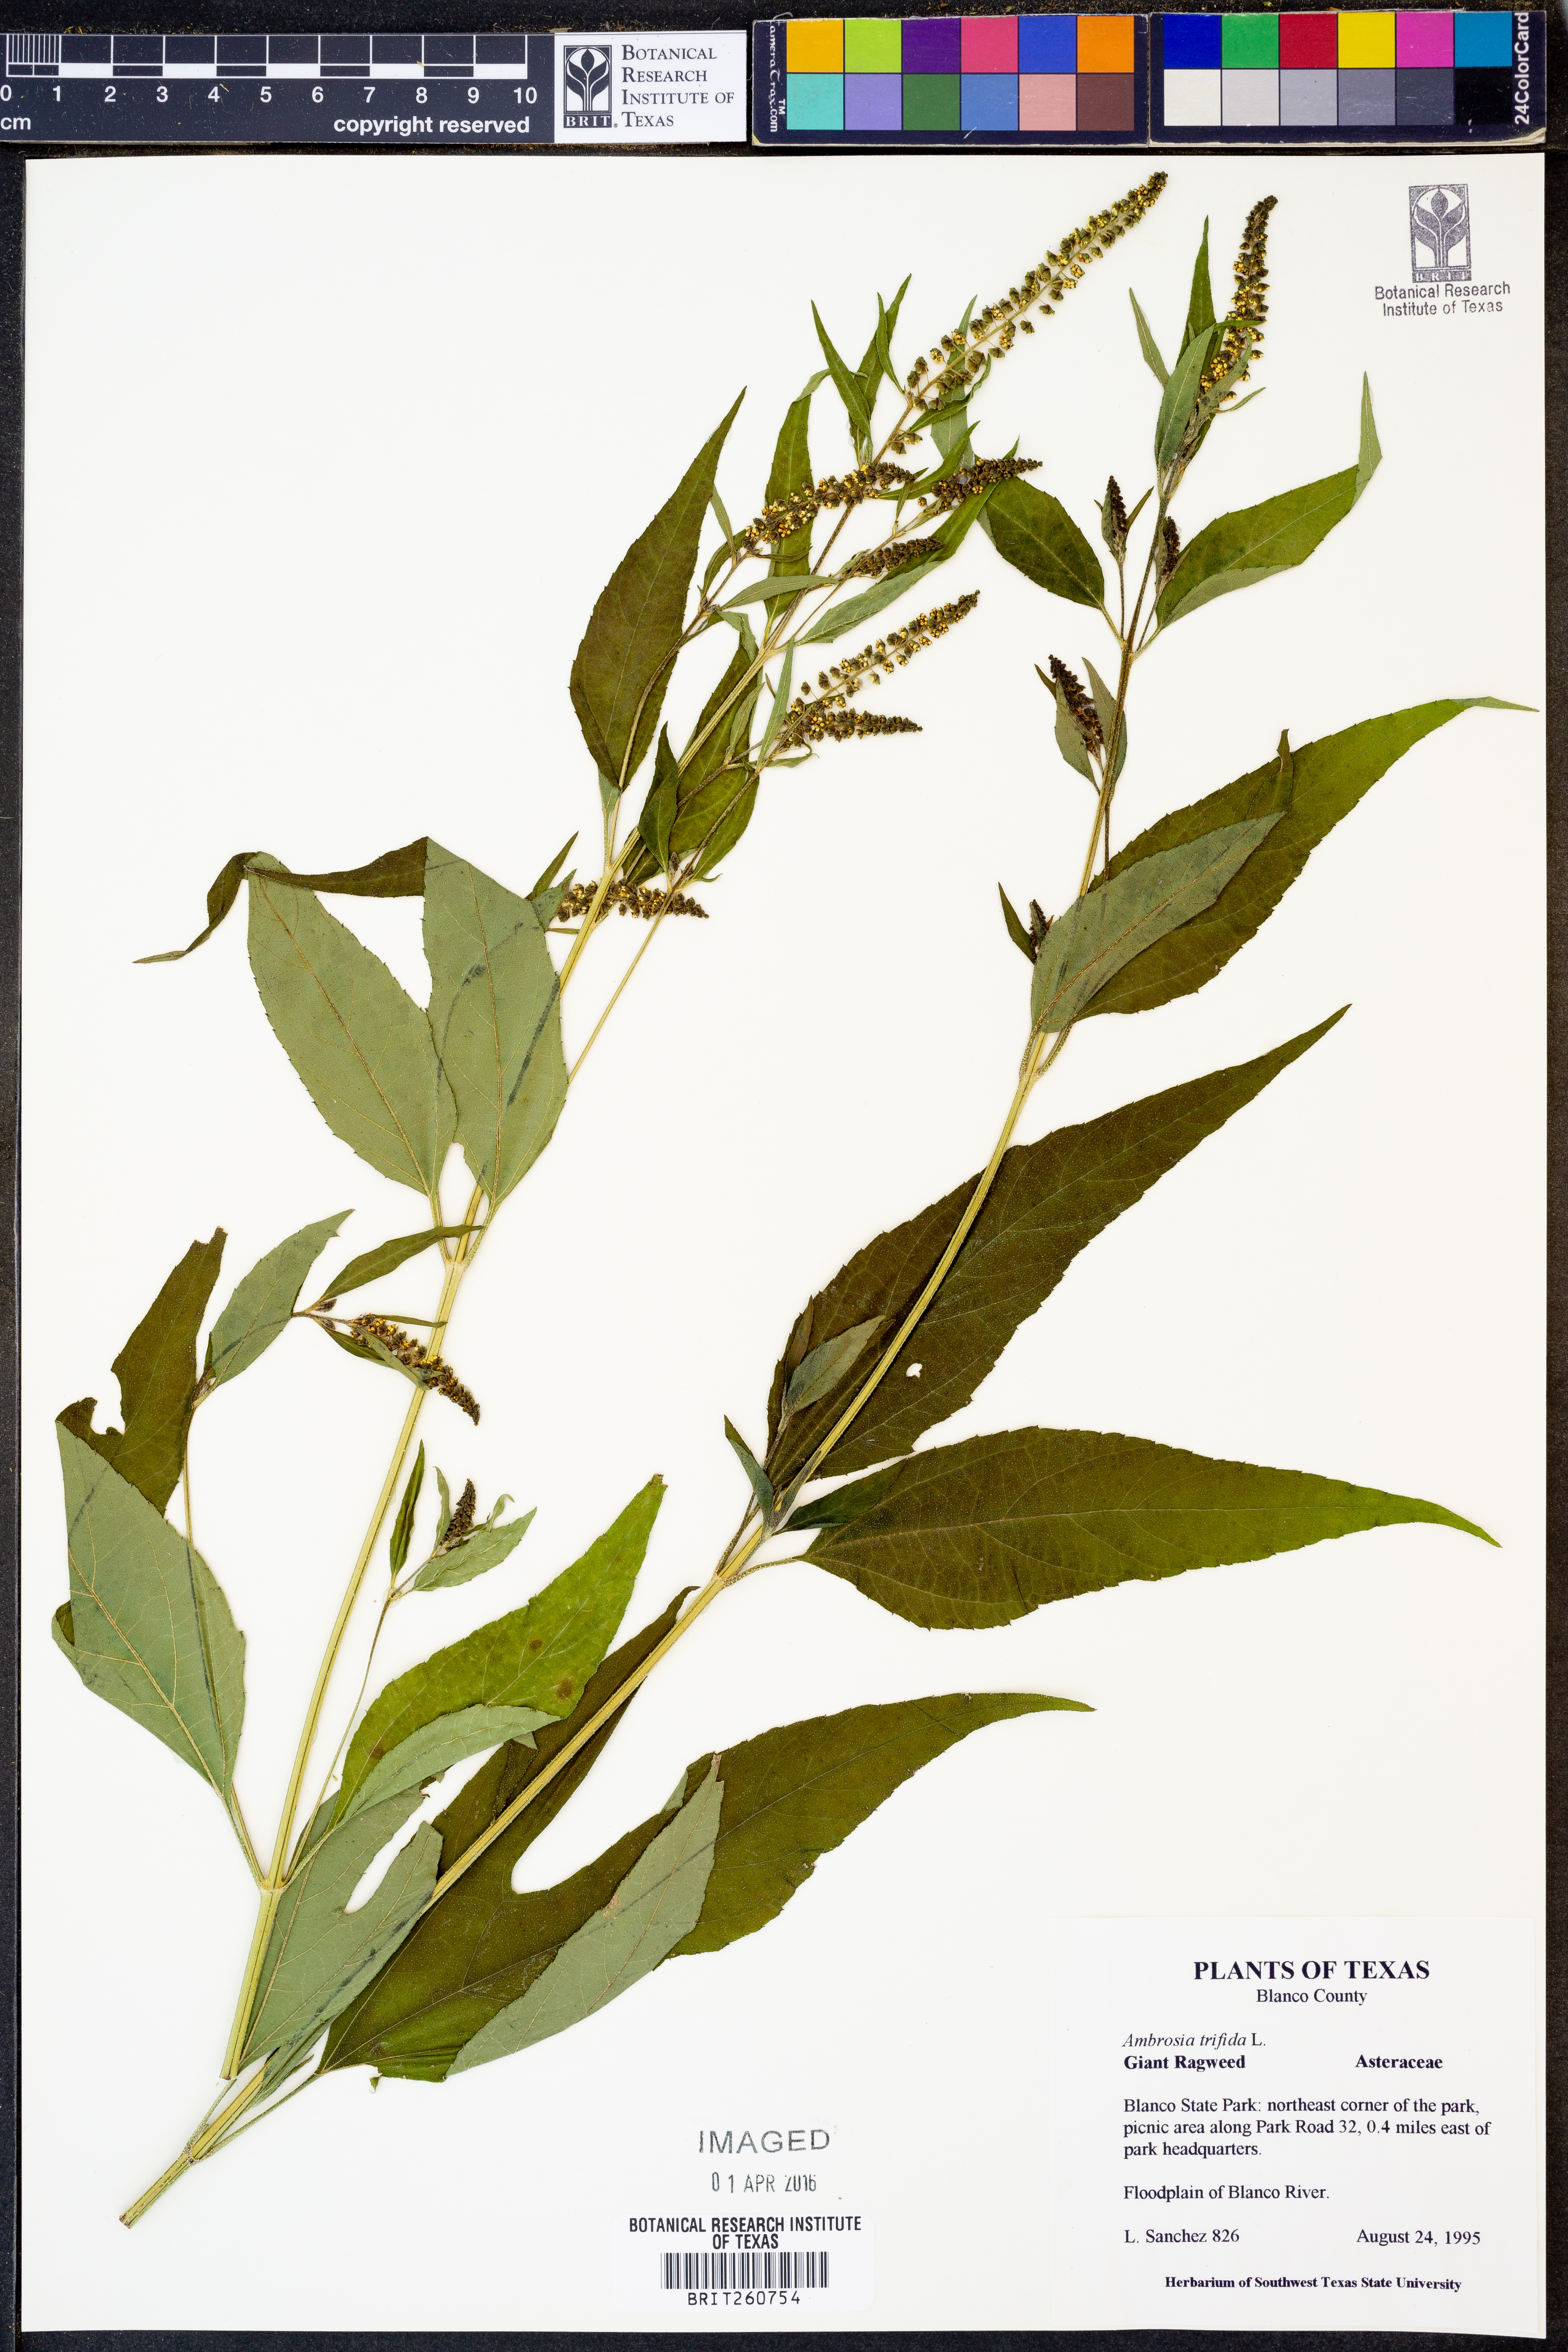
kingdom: Plantae
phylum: Tracheophyta
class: Magnoliopsida
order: Asterales
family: Asteraceae
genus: Ambrosia
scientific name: Ambrosia trifida
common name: Giant ragweed
